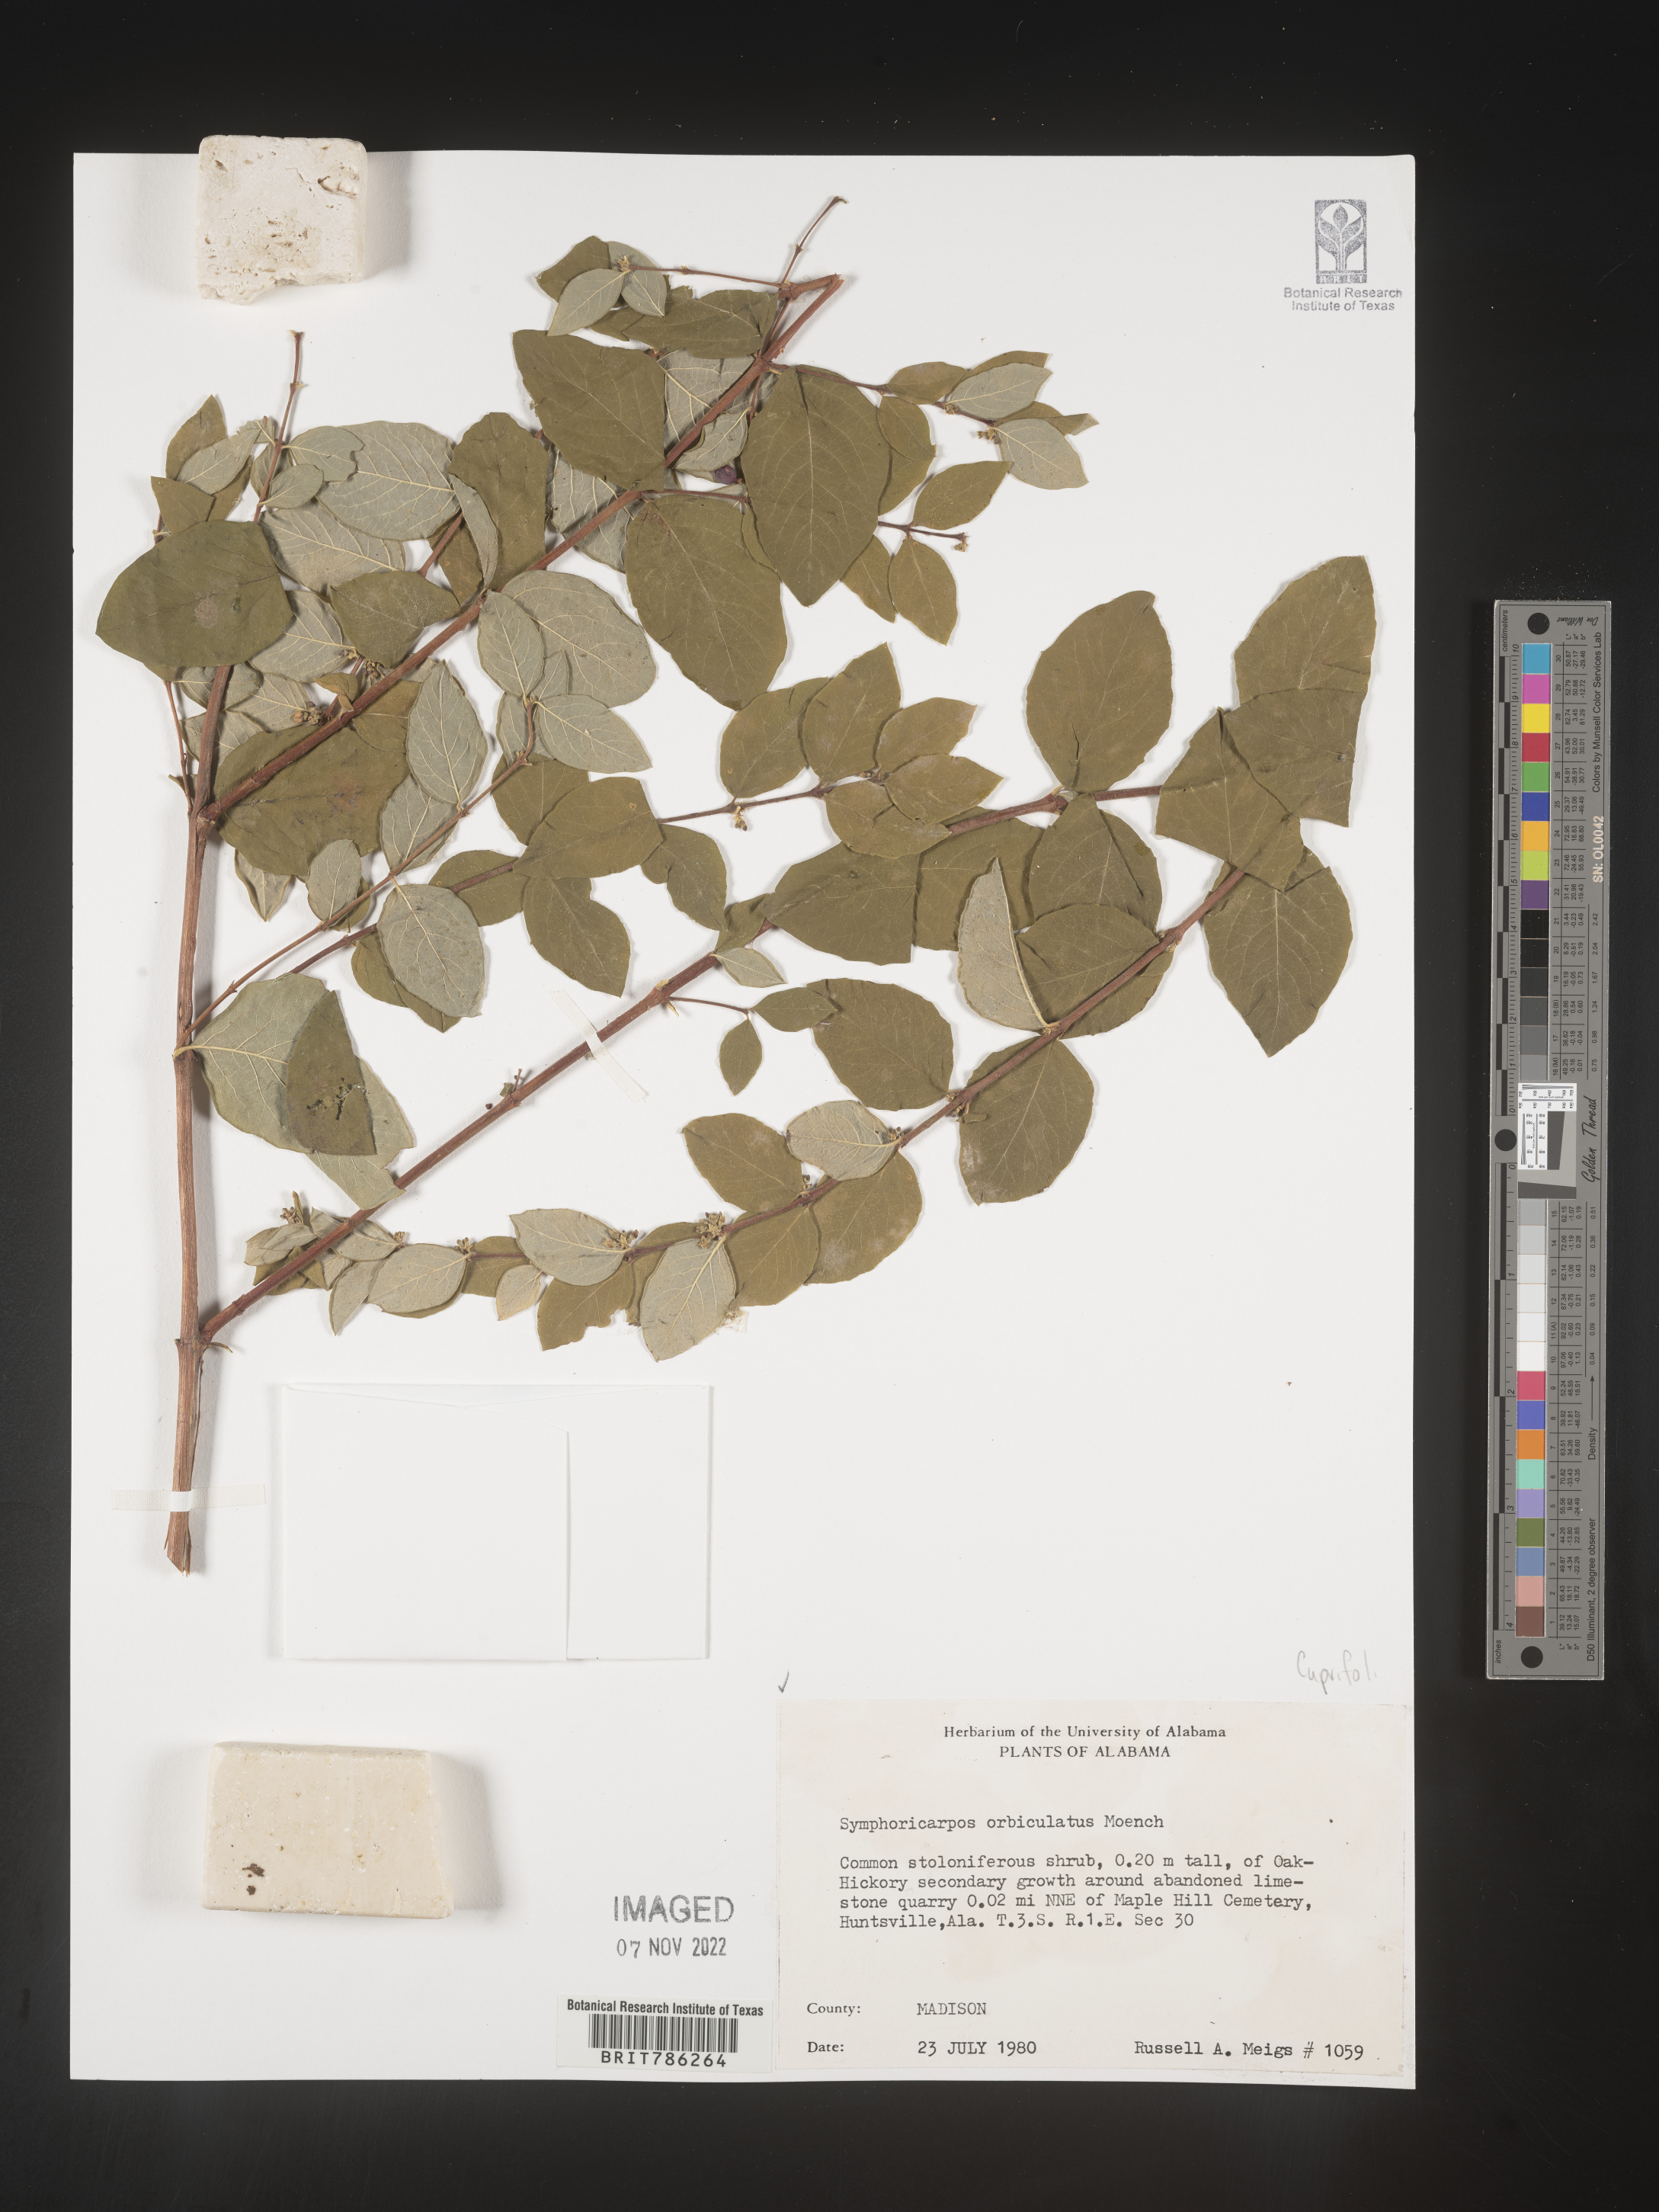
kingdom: Plantae
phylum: Tracheophyta
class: Magnoliopsida
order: Dipsacales
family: Caprifoliaceae
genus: Symphoricarpos
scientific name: Symphoricarpos orbiculatus
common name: Coralberry
